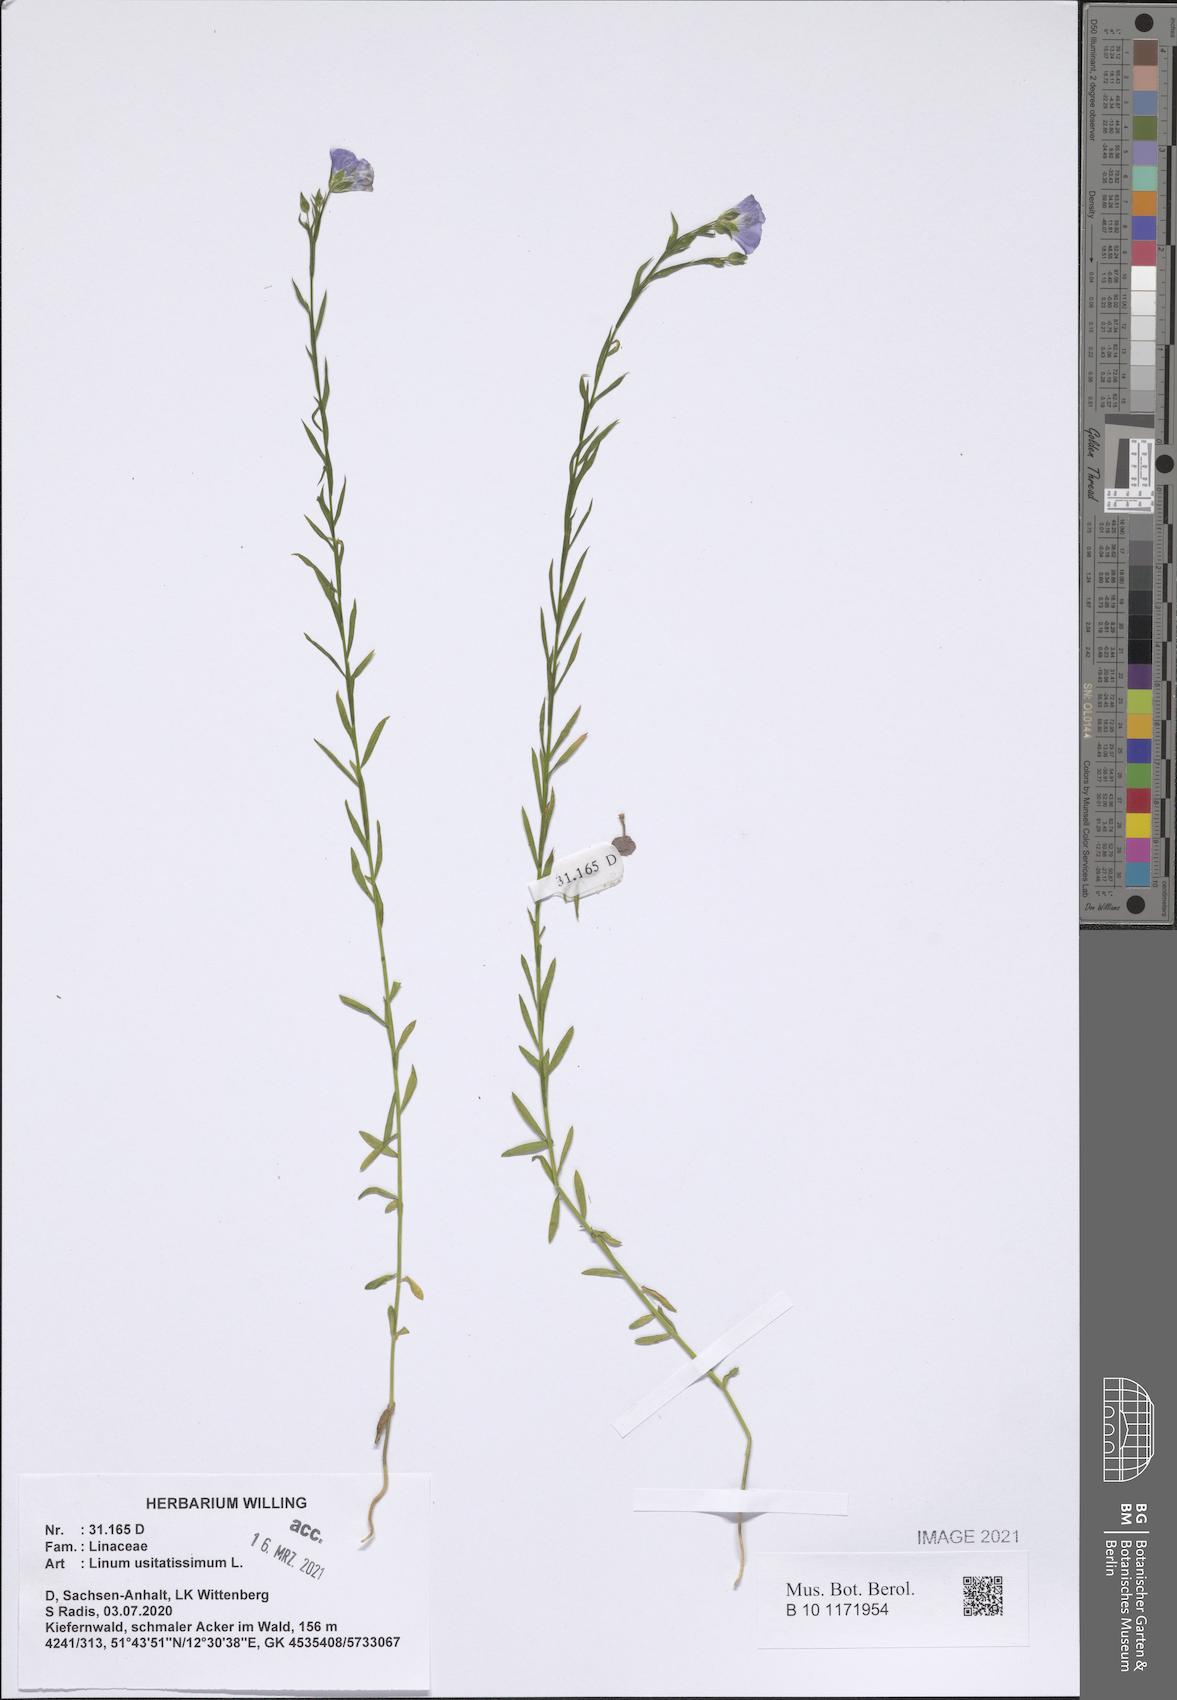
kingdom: Plantae
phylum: Tracheophyta
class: Magnoliopsida
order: Malpighiales
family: Linaceae
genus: Linum
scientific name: Linum usitatissimum
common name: Flax
